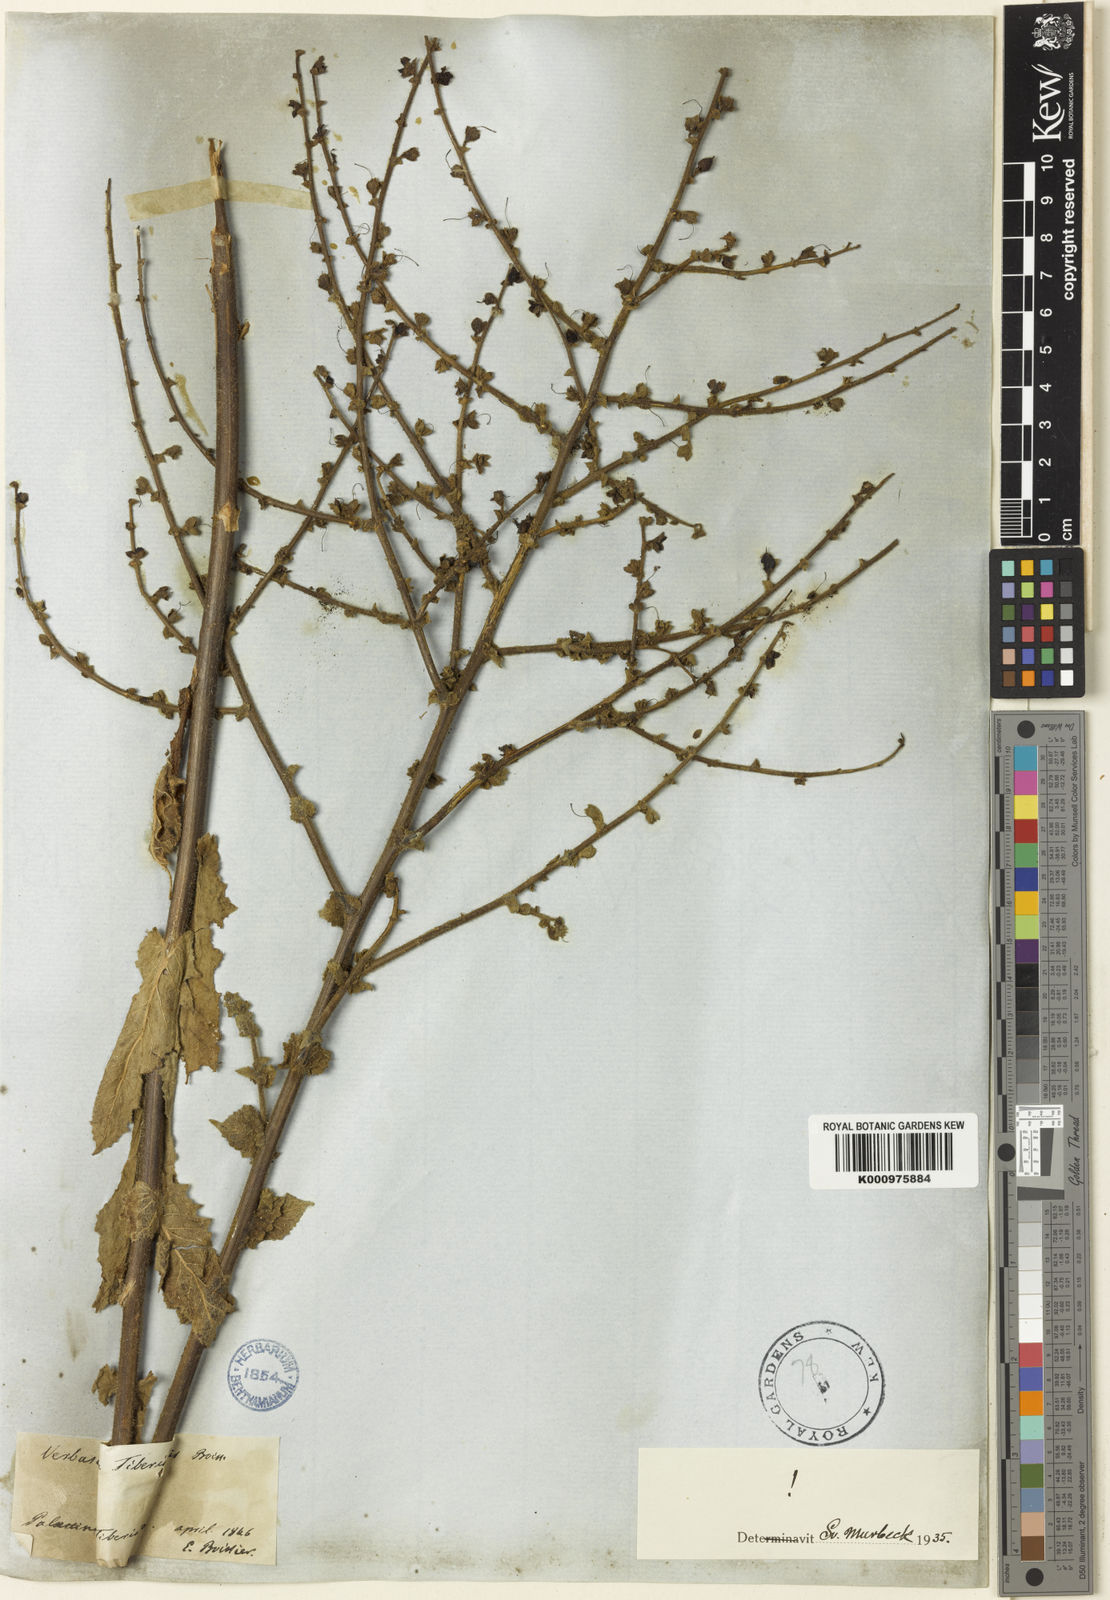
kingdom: Plantae
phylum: Tracheophyta
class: Magnoliopsida
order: Lamiales
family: Scrophulariaceae
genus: Verbascum
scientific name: Verbascum tiberiadis
